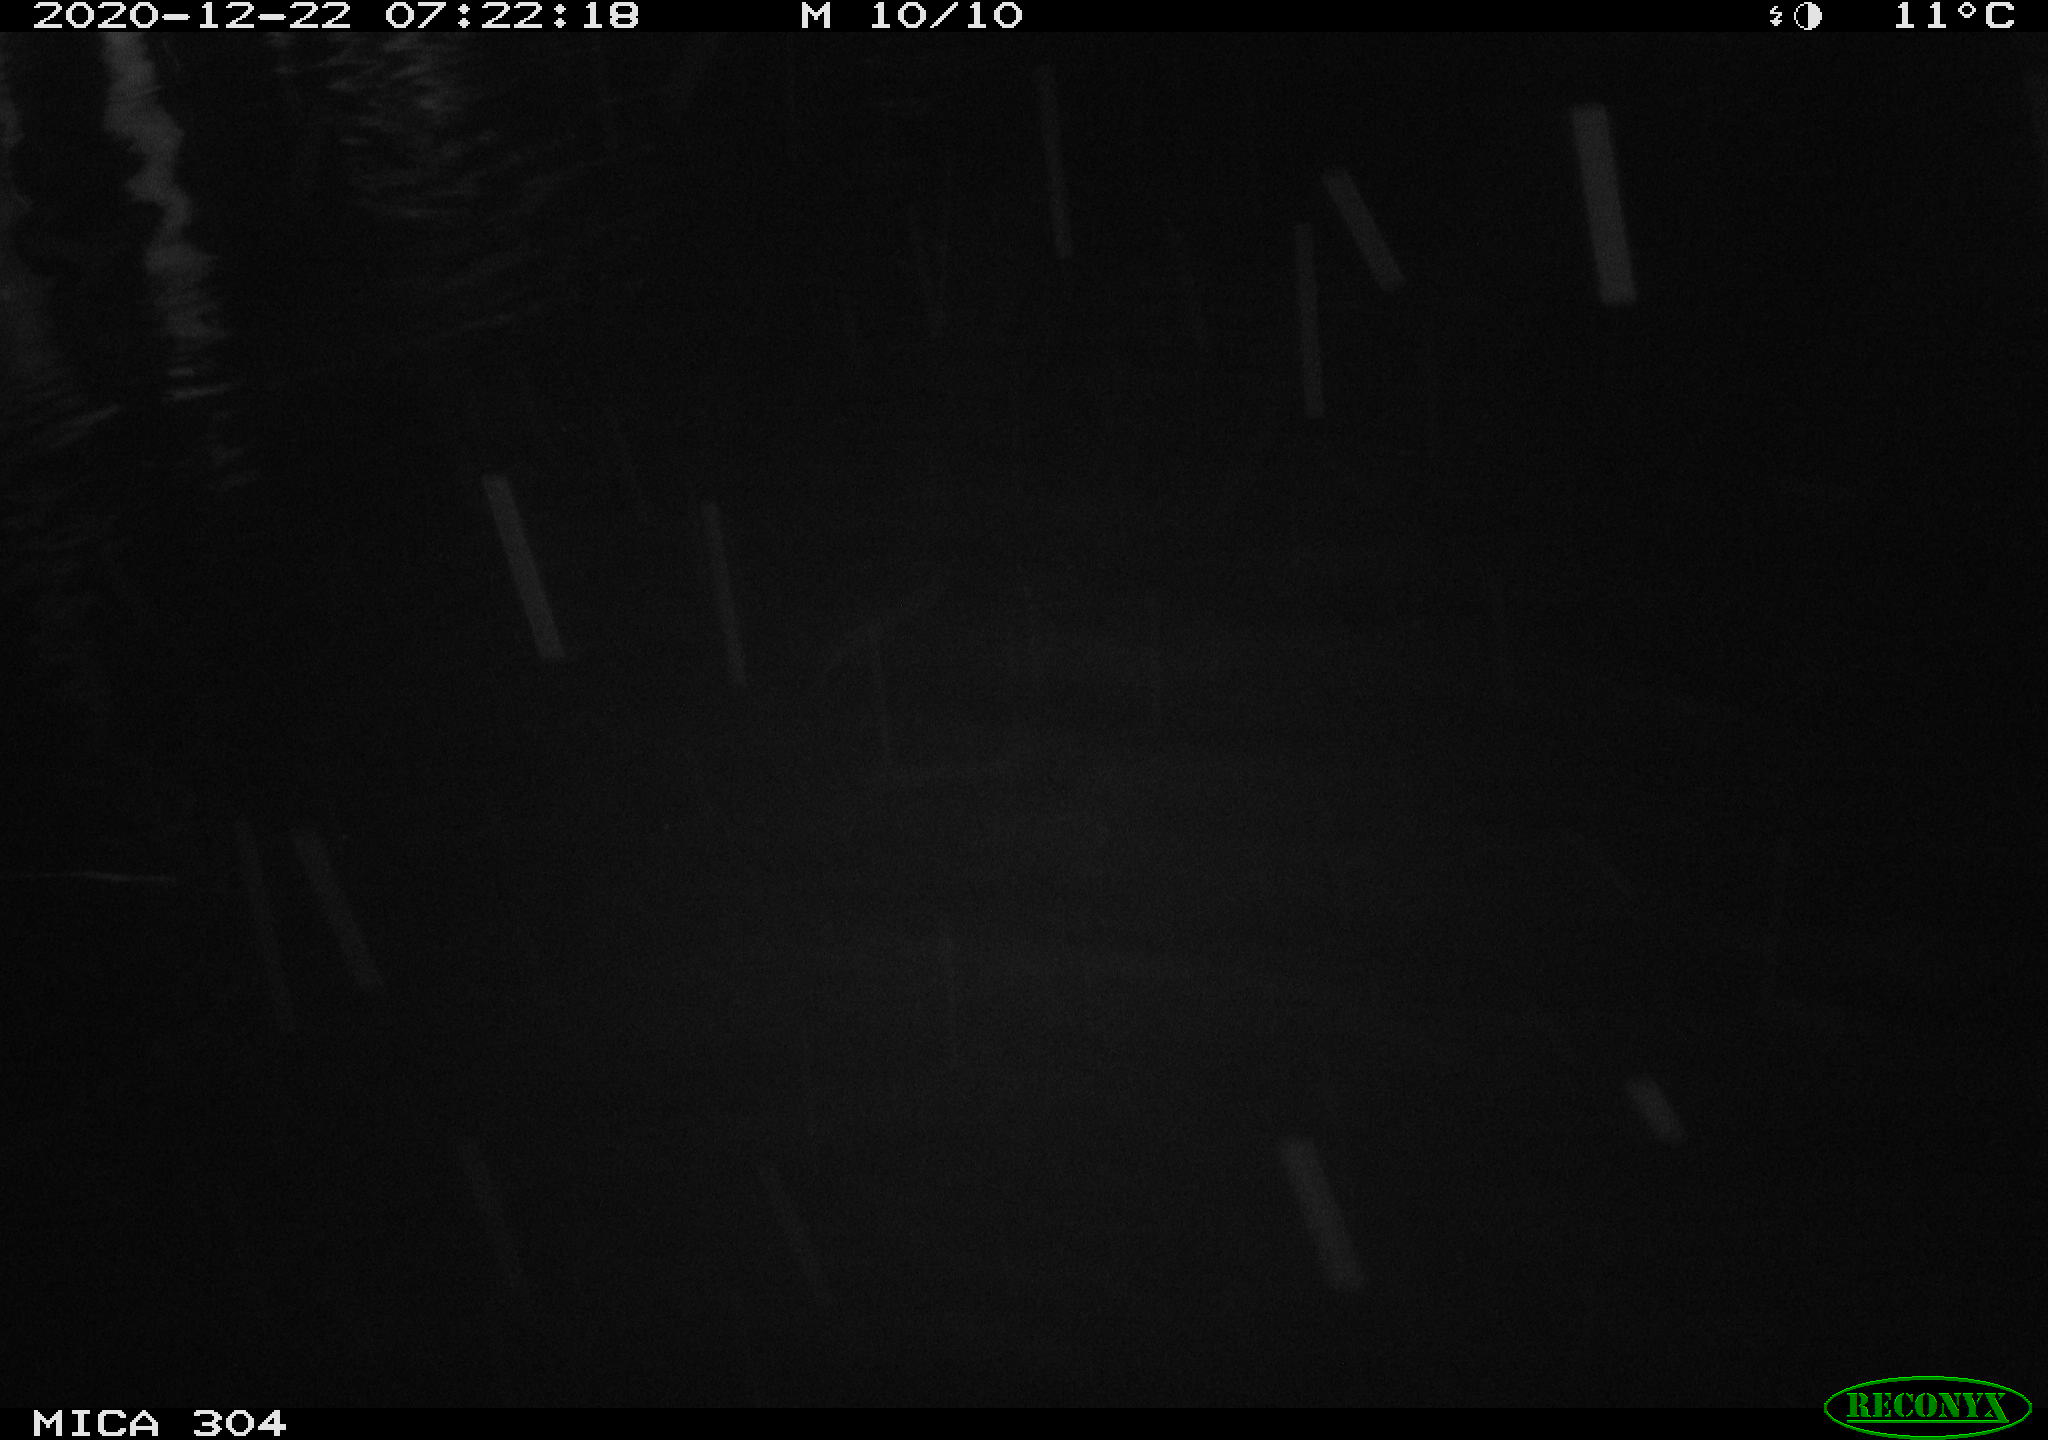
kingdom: Animalia
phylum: Chordata
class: Aves
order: Anseriformes
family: Anatidae
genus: Anas
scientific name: Anas platyrhynchos
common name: Mallard
